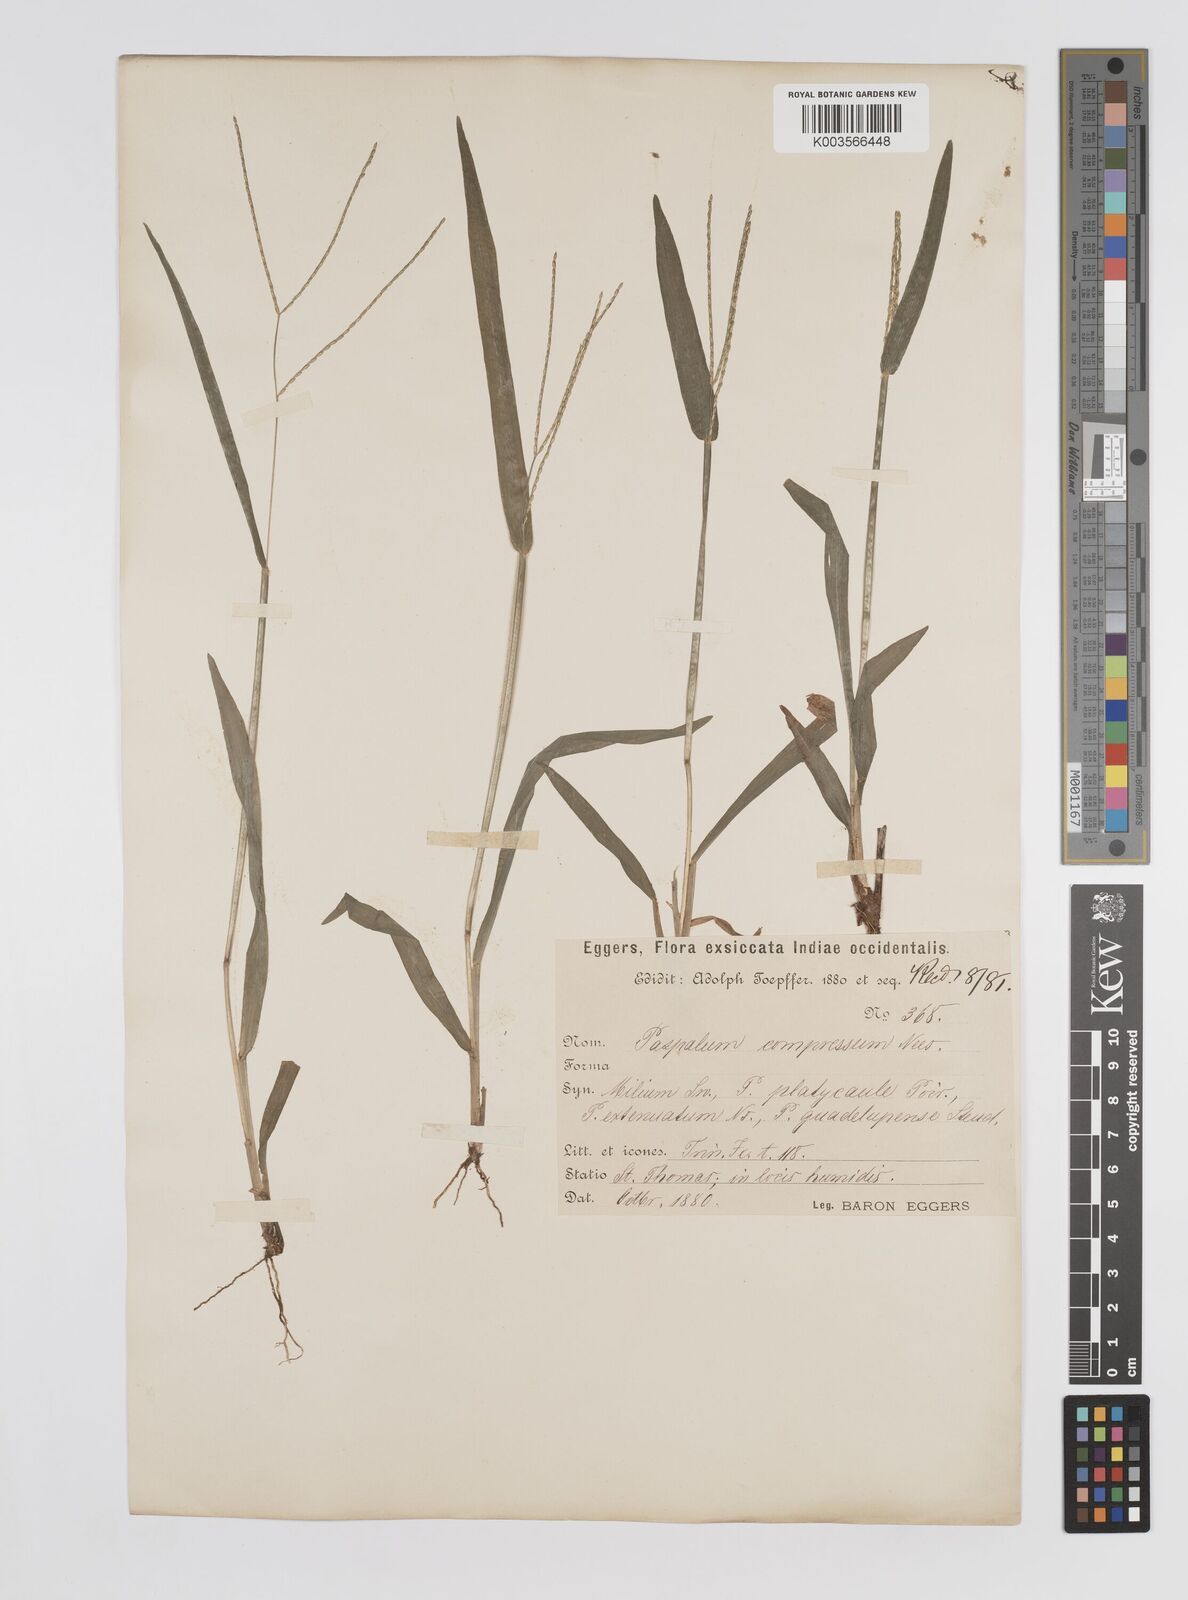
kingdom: Plantae
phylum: Tracheophyta
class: Liliopsida
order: Poales
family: Poaceae
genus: Axonopus
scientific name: Axonopus compressus
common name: American carpet grass
